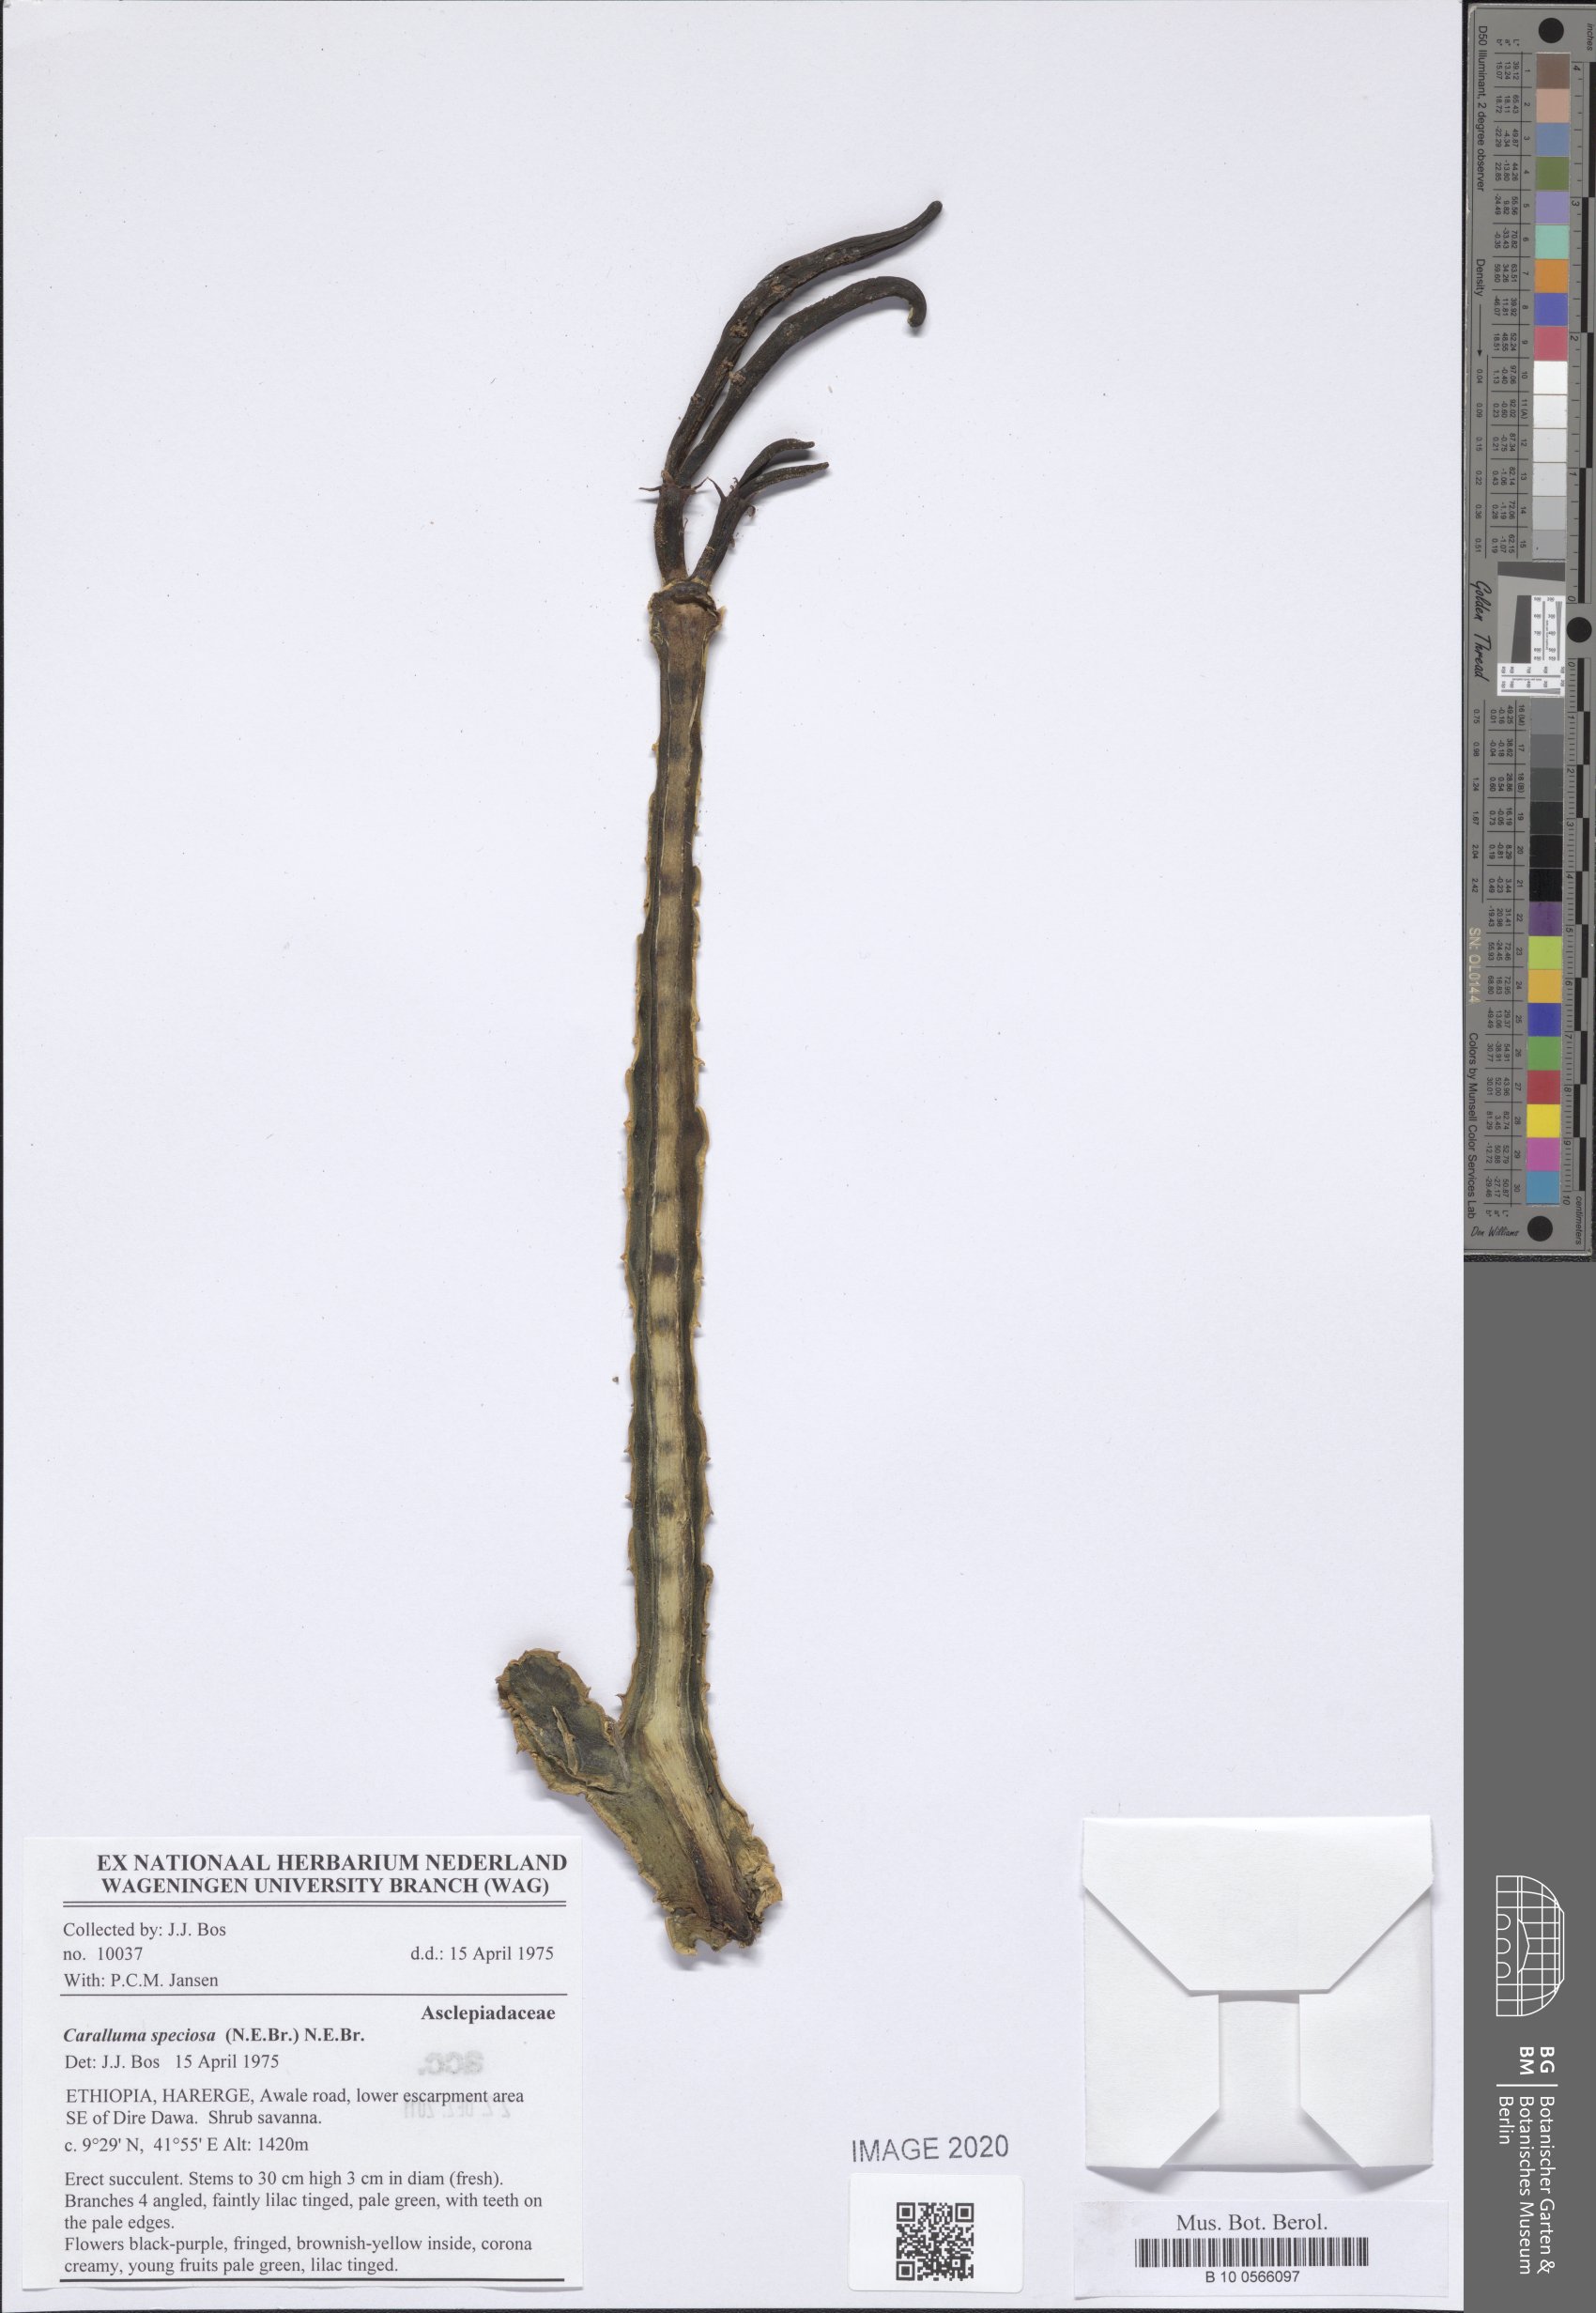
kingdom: Plantae
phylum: Tracheophyta
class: Magnoliopsida
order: Gentianales
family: Apocynaceae
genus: Ceropegia
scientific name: Ceropegia codonoides
